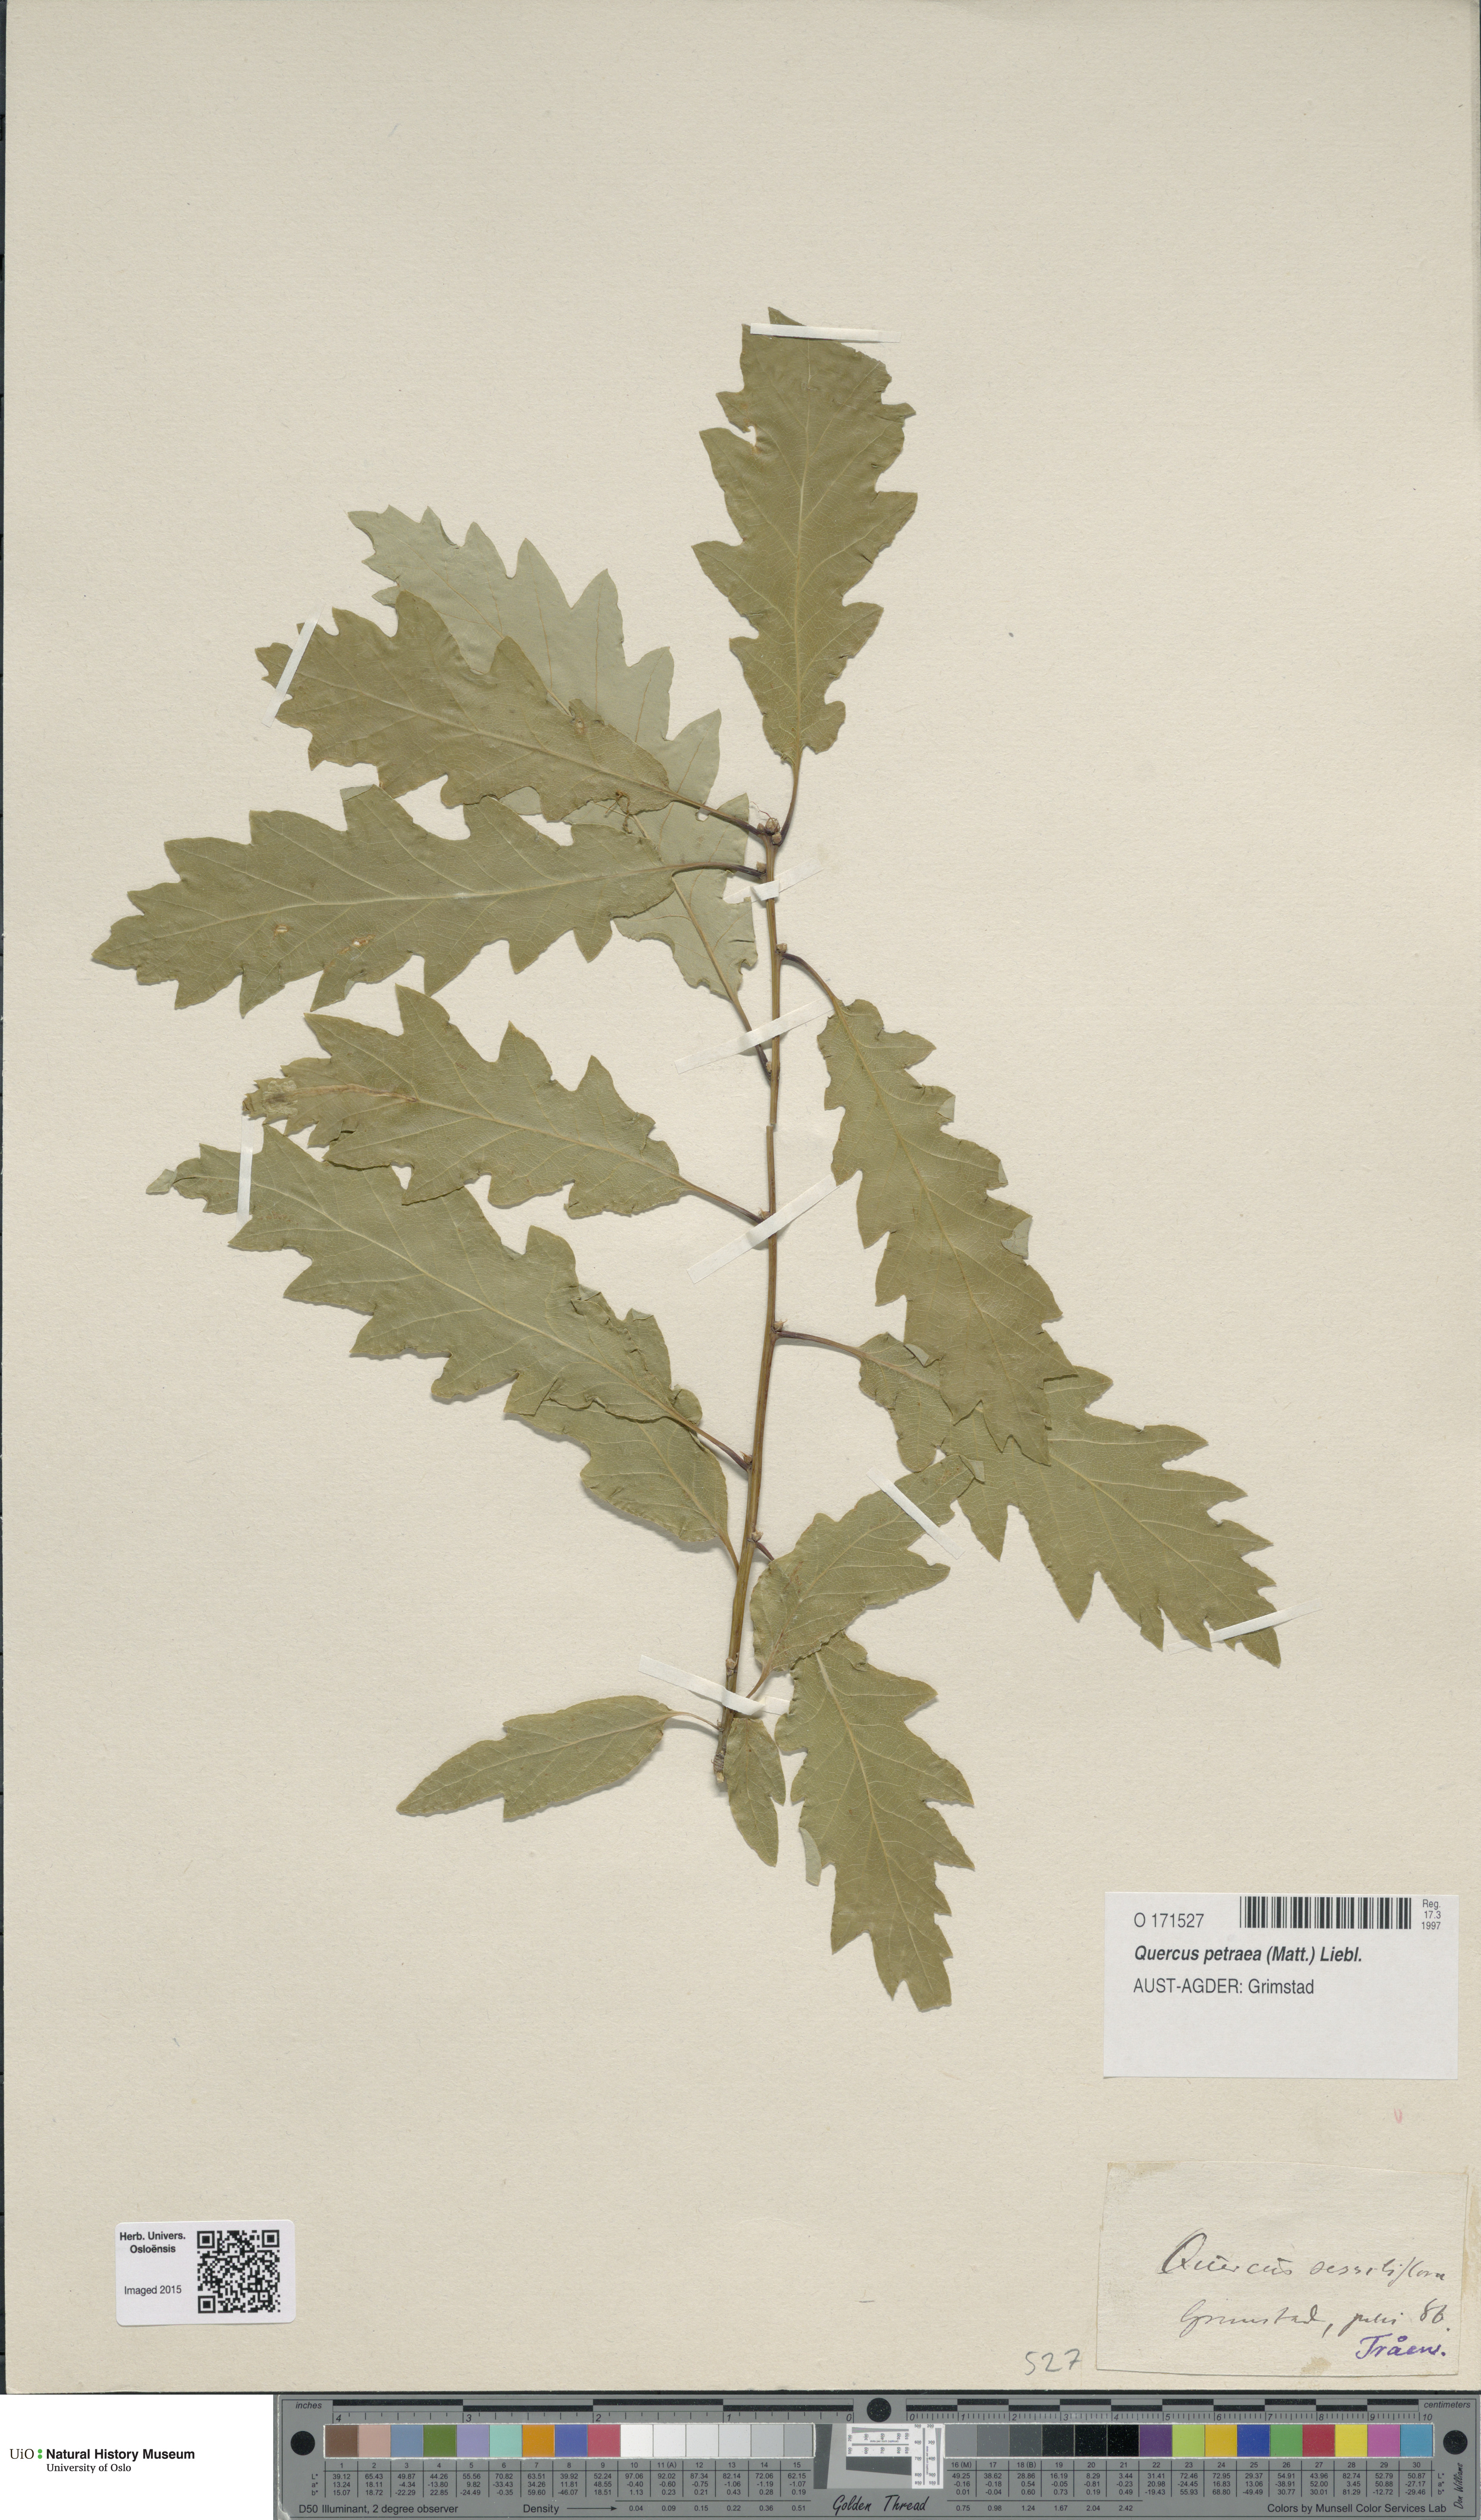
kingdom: Plantae
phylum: Tracheophyta
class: Magnoliopsida
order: Fagales
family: Fagaceae
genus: Quercus
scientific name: Quercus petraea
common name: Sessile oak
